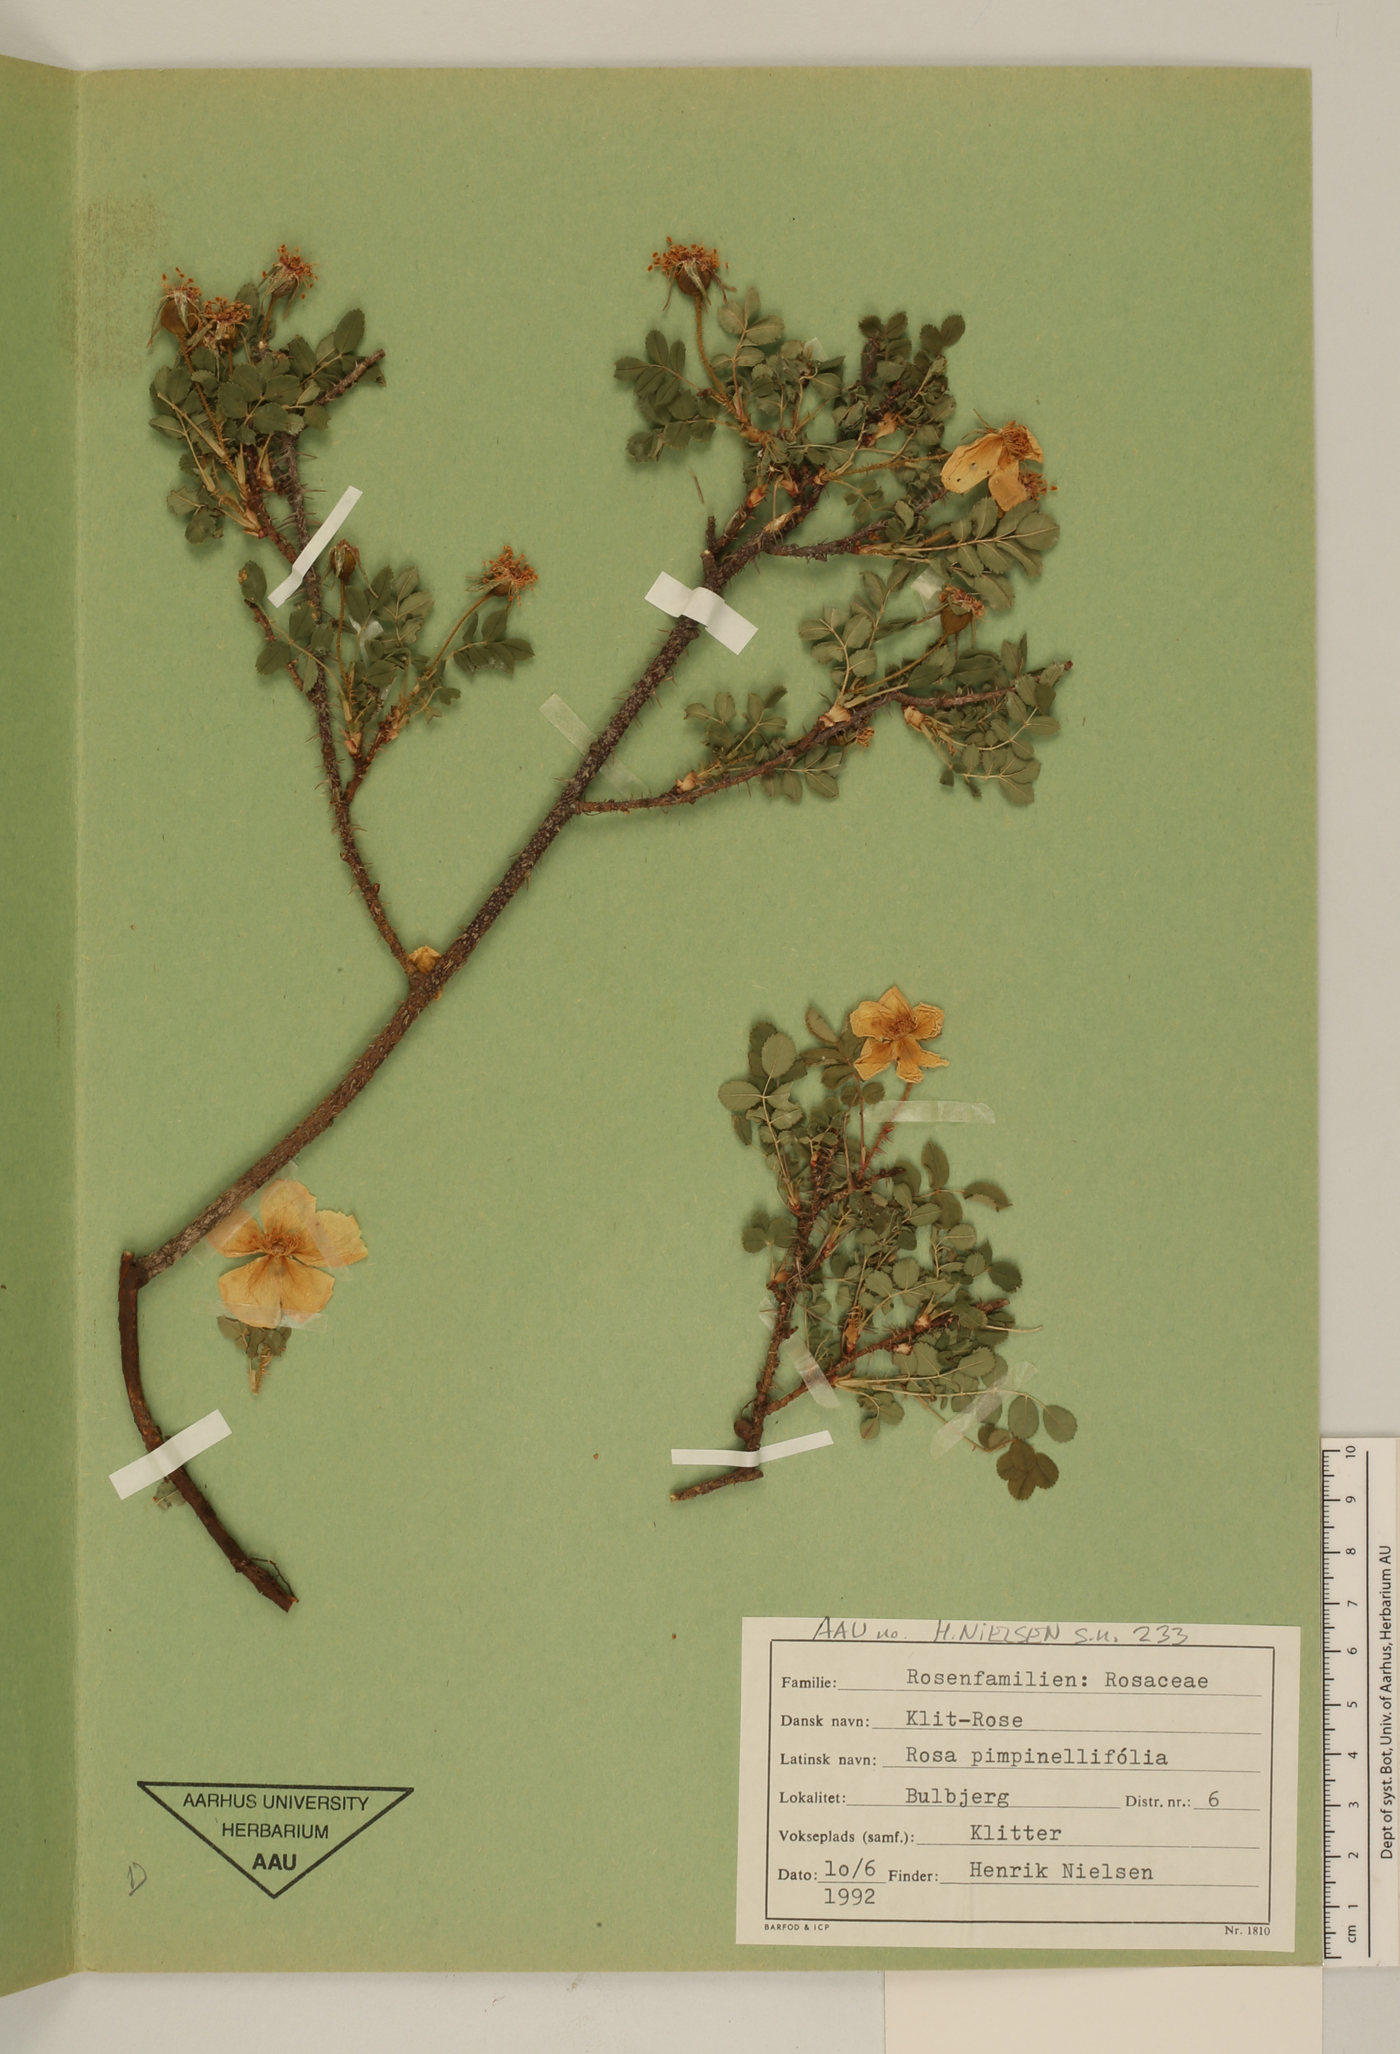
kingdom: Plantae
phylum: Tracheophyta
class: Magnoliopsida
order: Rosales
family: Rosaceae
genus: Rosa
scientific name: Rosa spinosissima
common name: Burnet rose
